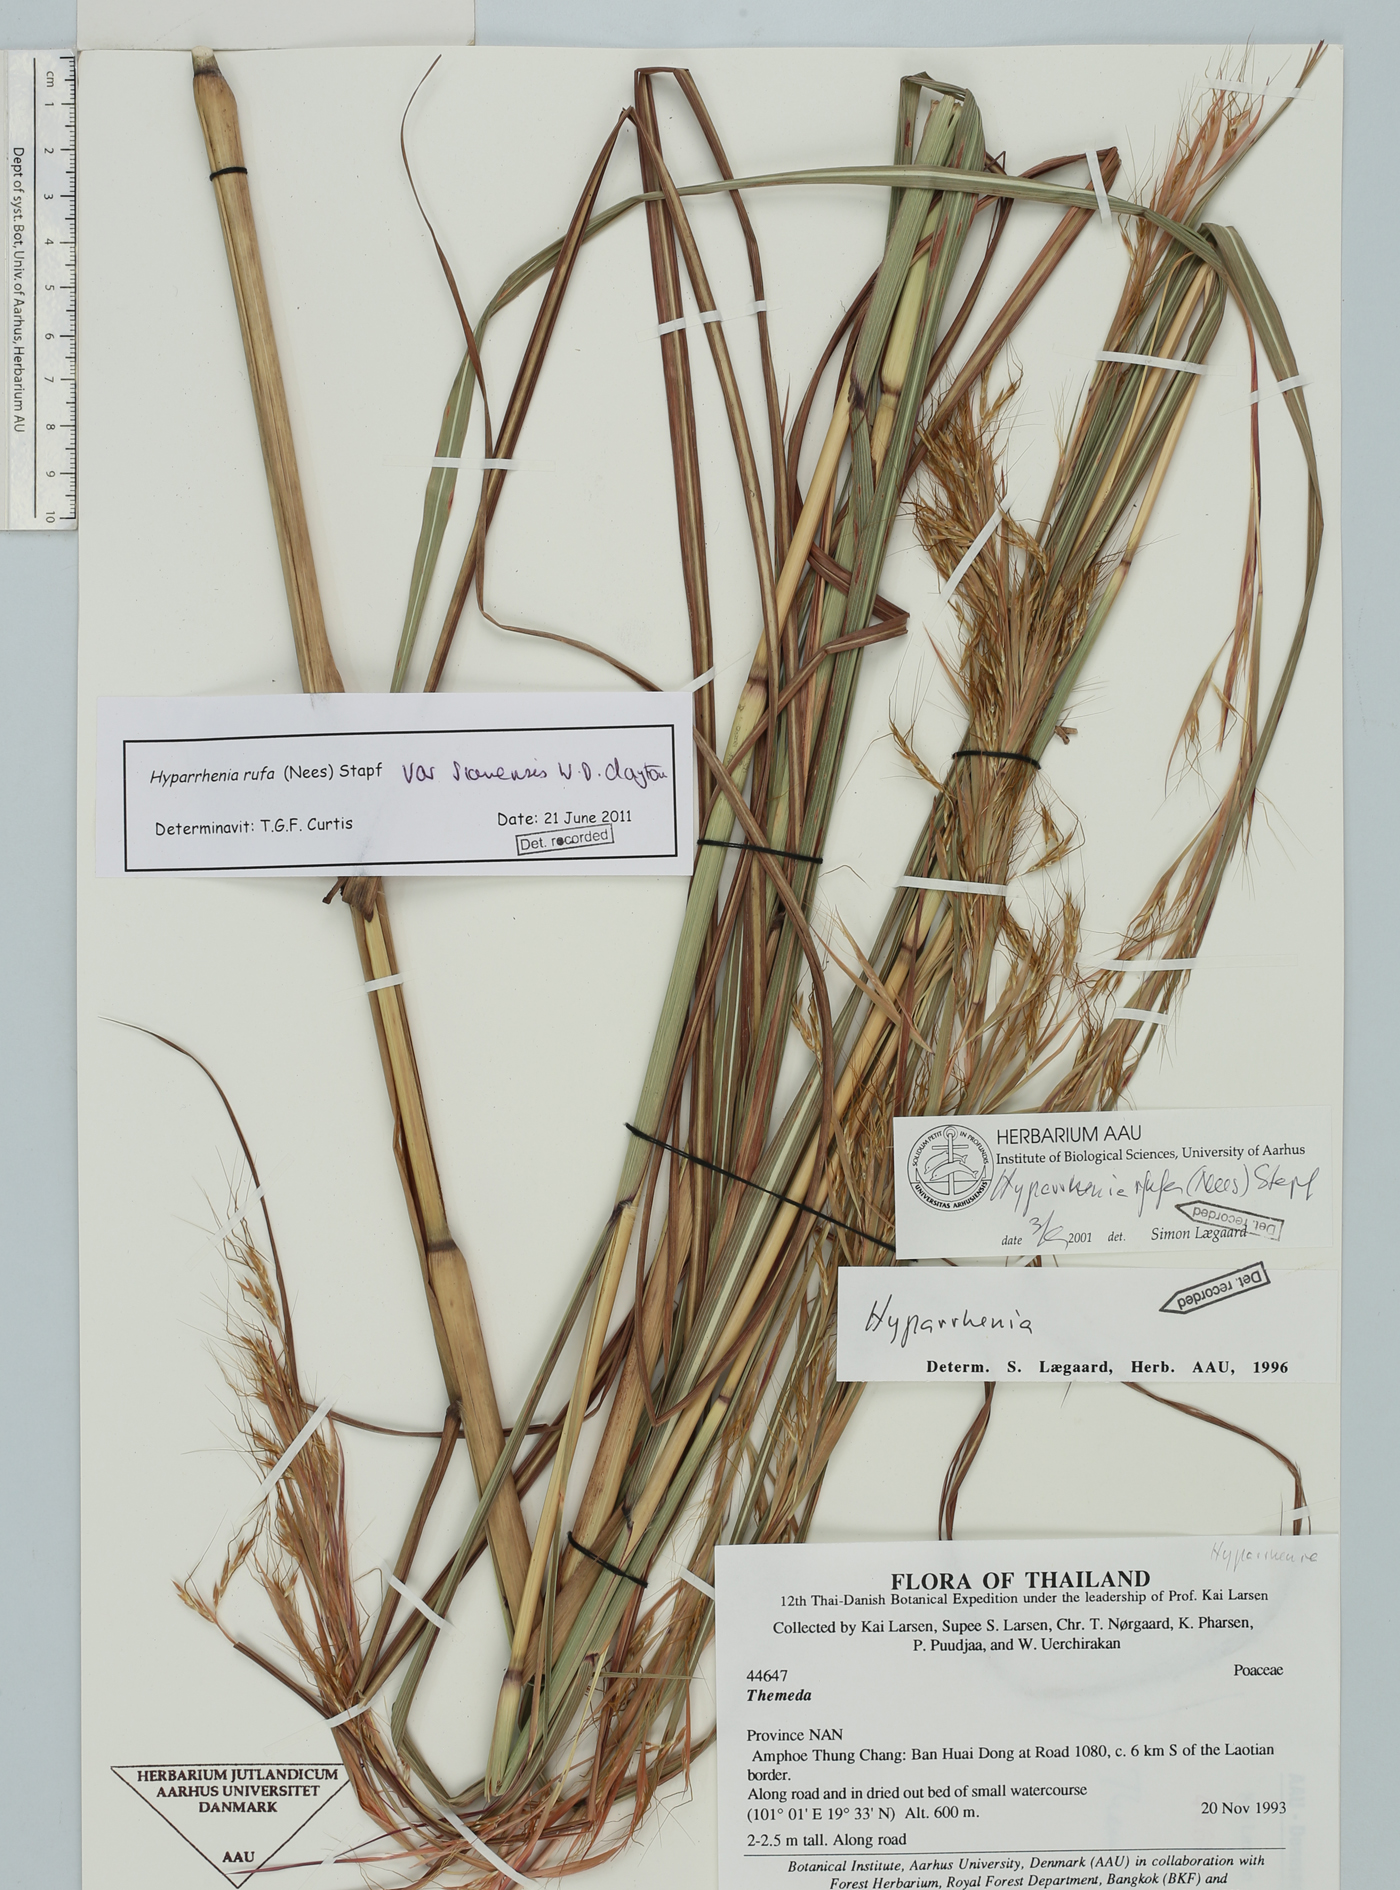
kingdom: Plantae
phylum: Tracheophyta
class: Liliopsida
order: Poales
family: Poaceae
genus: Hyparrhenia
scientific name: Hyparrhenia rufa
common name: Jaraguagrass
